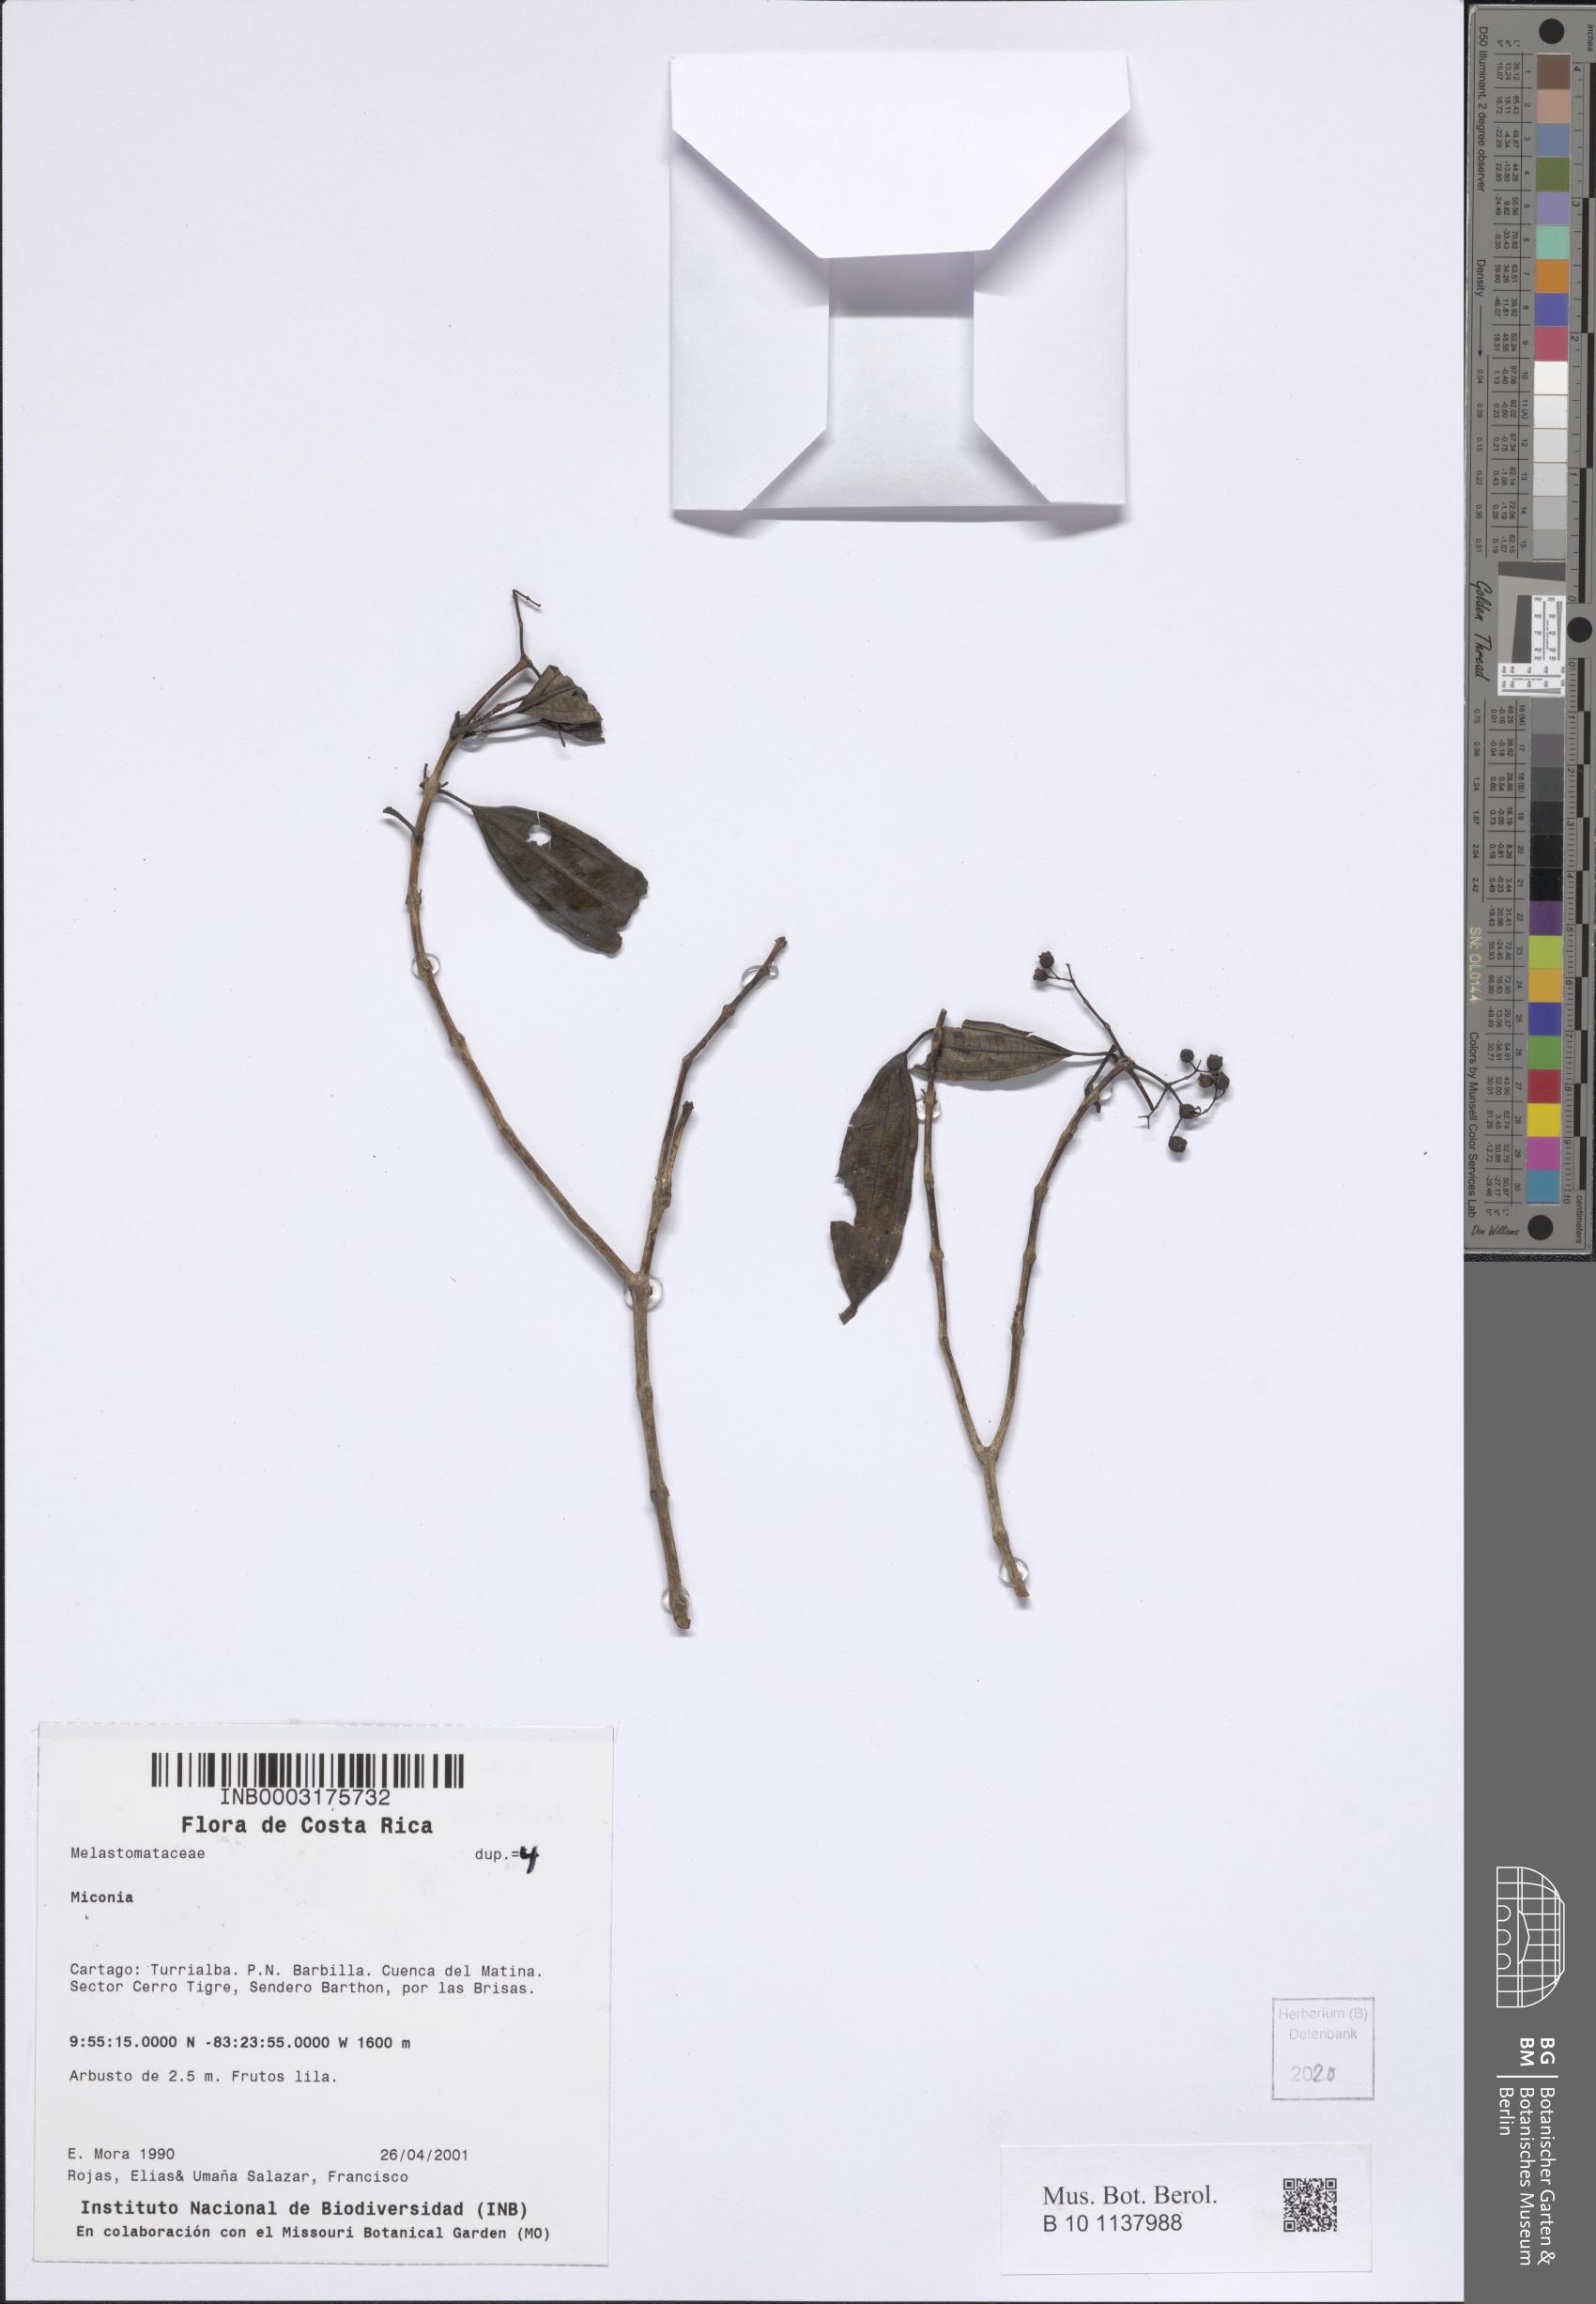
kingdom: Plantae
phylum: Tracheophyta
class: Magnoliopsida
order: Myrtales
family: Melastomataceae
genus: Miconia
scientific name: Miconia
